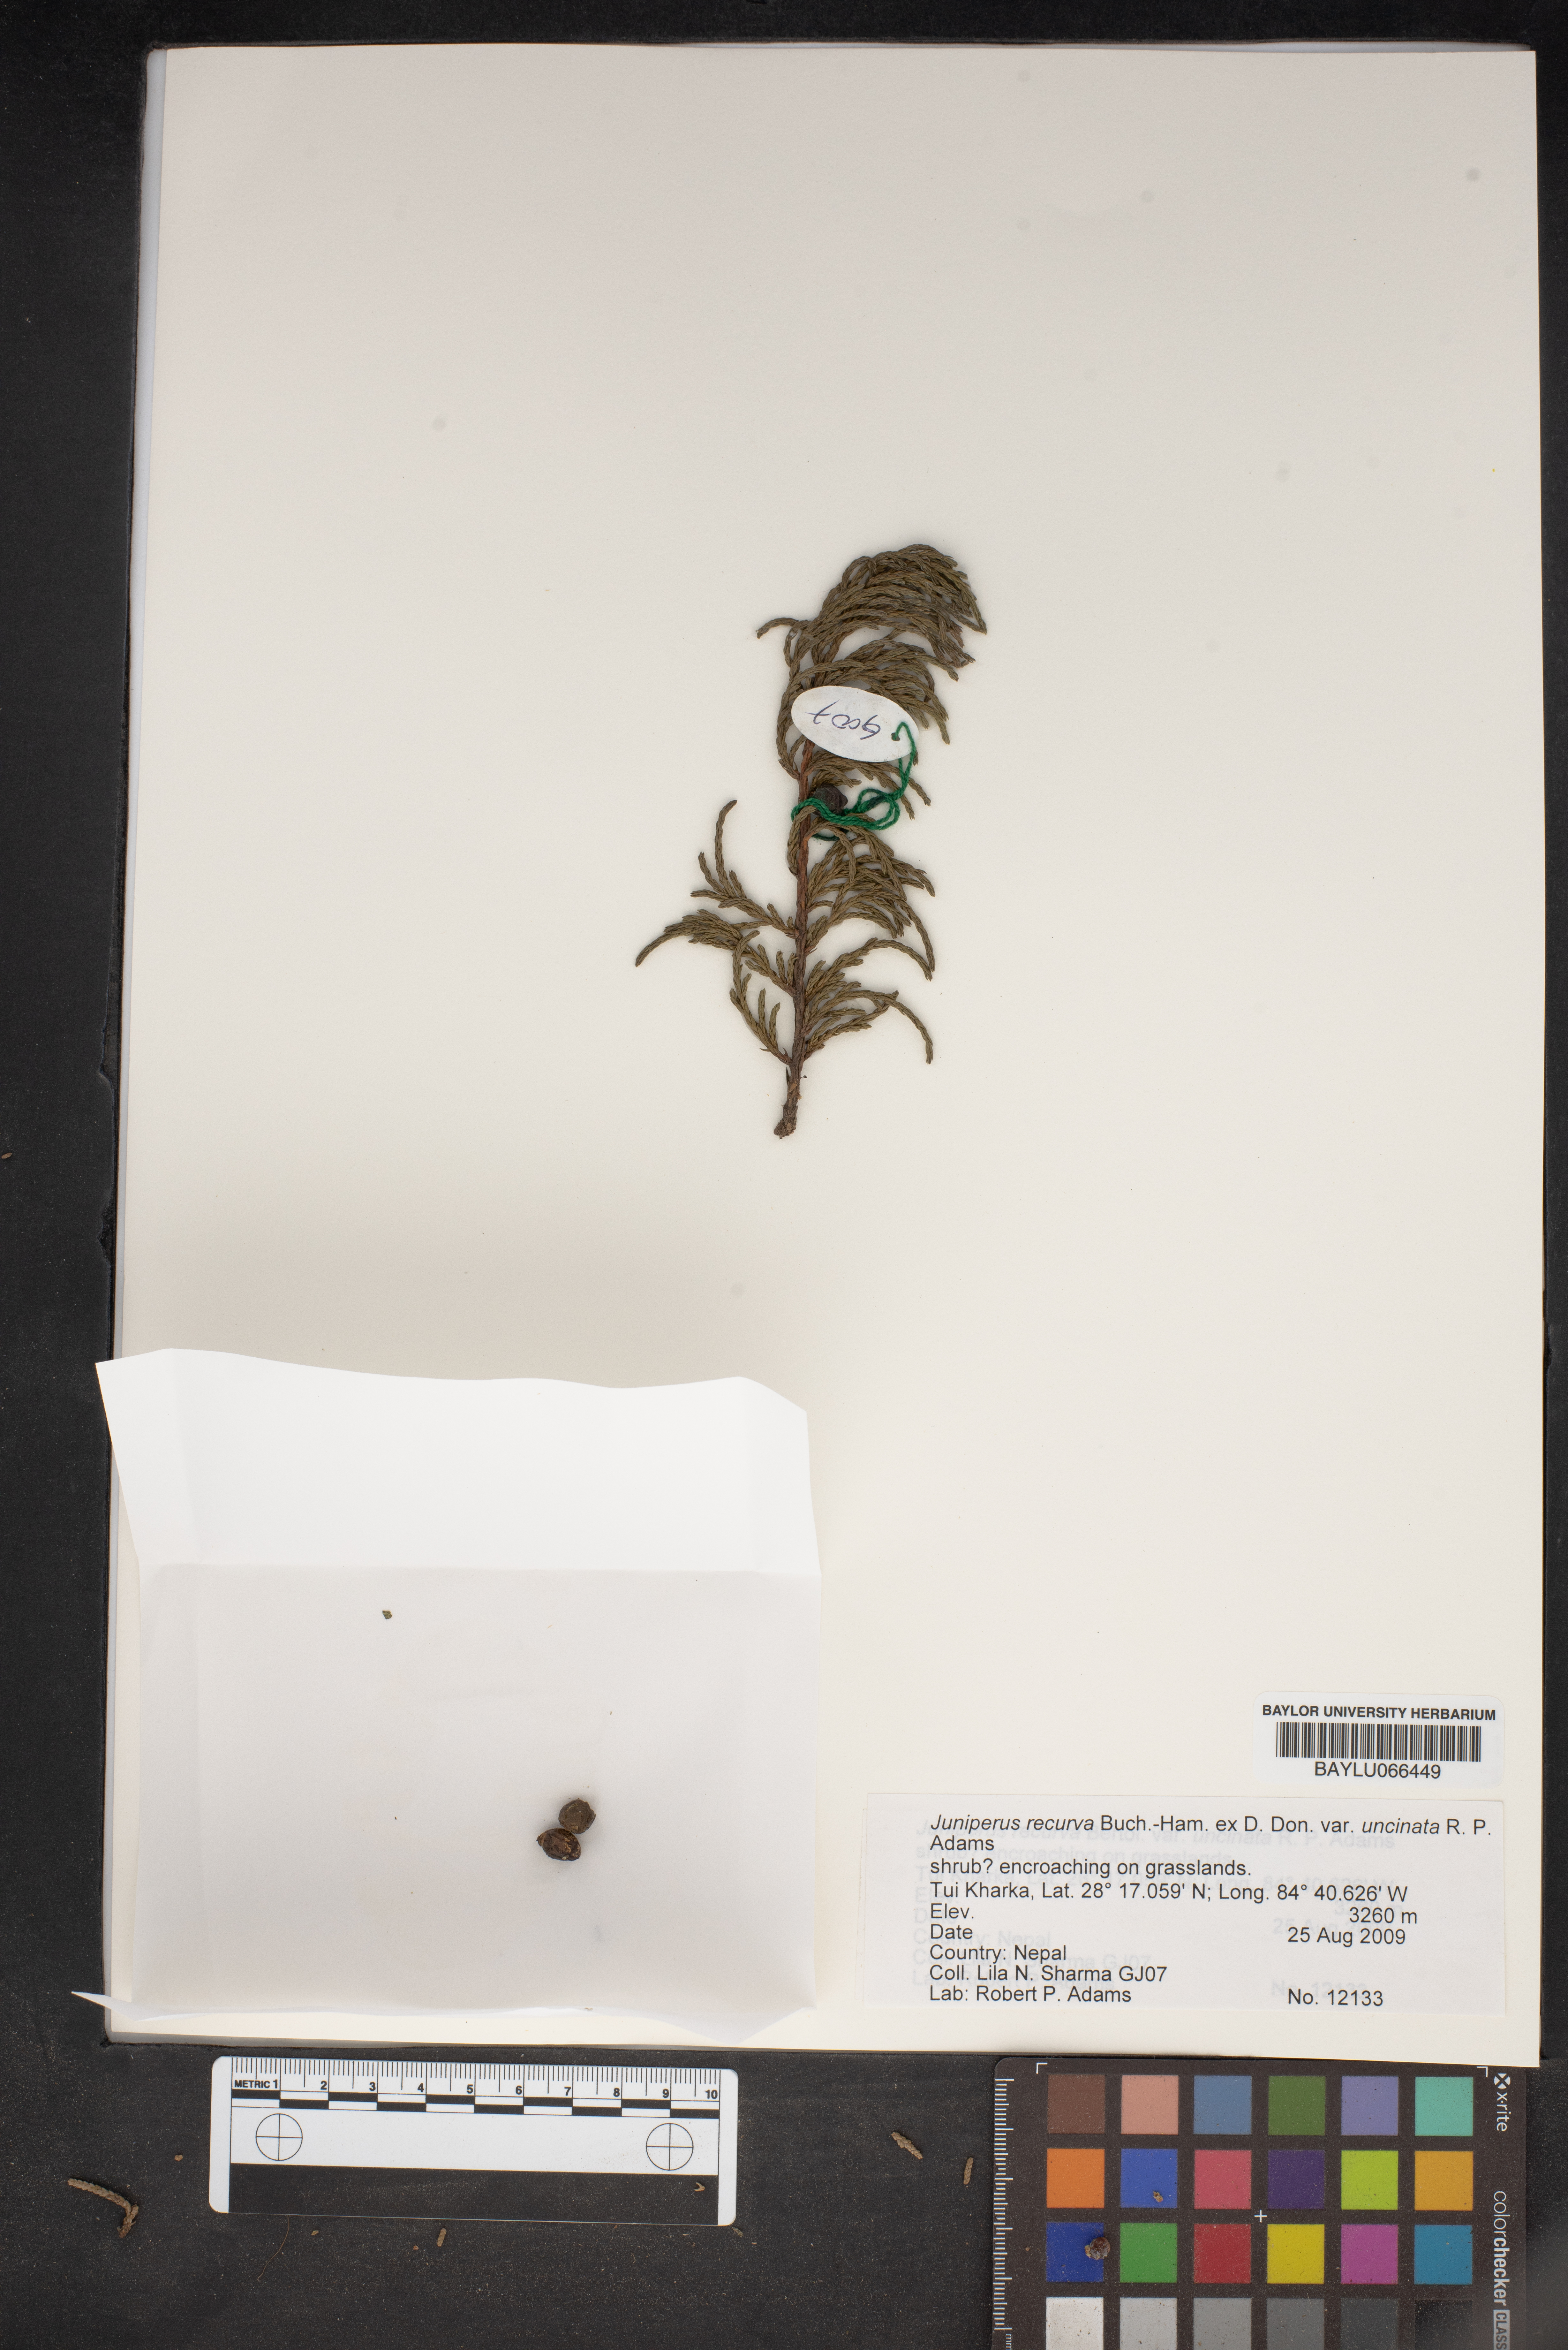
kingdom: Plantae
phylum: Tracheophyta
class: Pinopsida
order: Pinales
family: Cupressaceae
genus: Juniperus
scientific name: Juniperus recurva
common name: Drooping juniper
